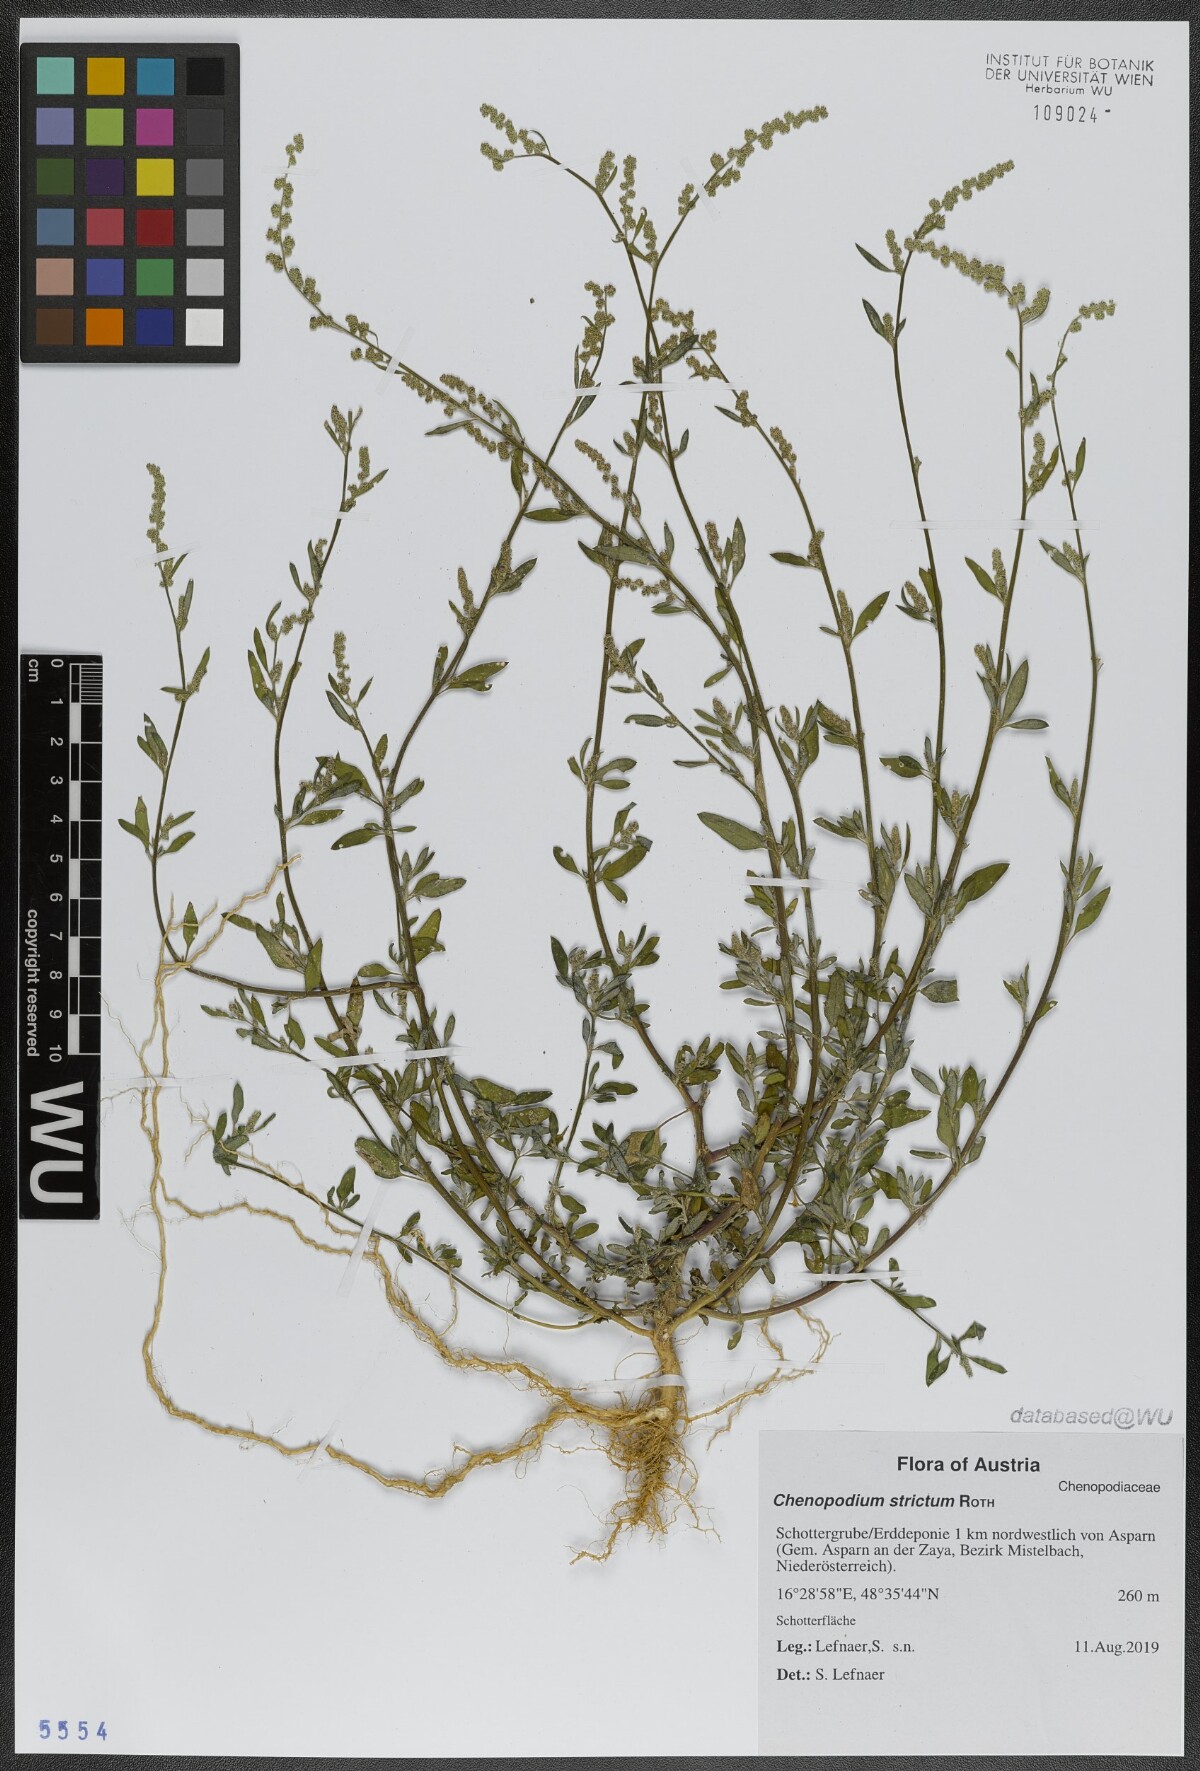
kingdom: Plantae
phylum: Tracheophyta
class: Magnoliopsida
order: Caryophyllales
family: Amaranthaceae
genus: Chenopodium
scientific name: Chenopodium album
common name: Fat-hen
